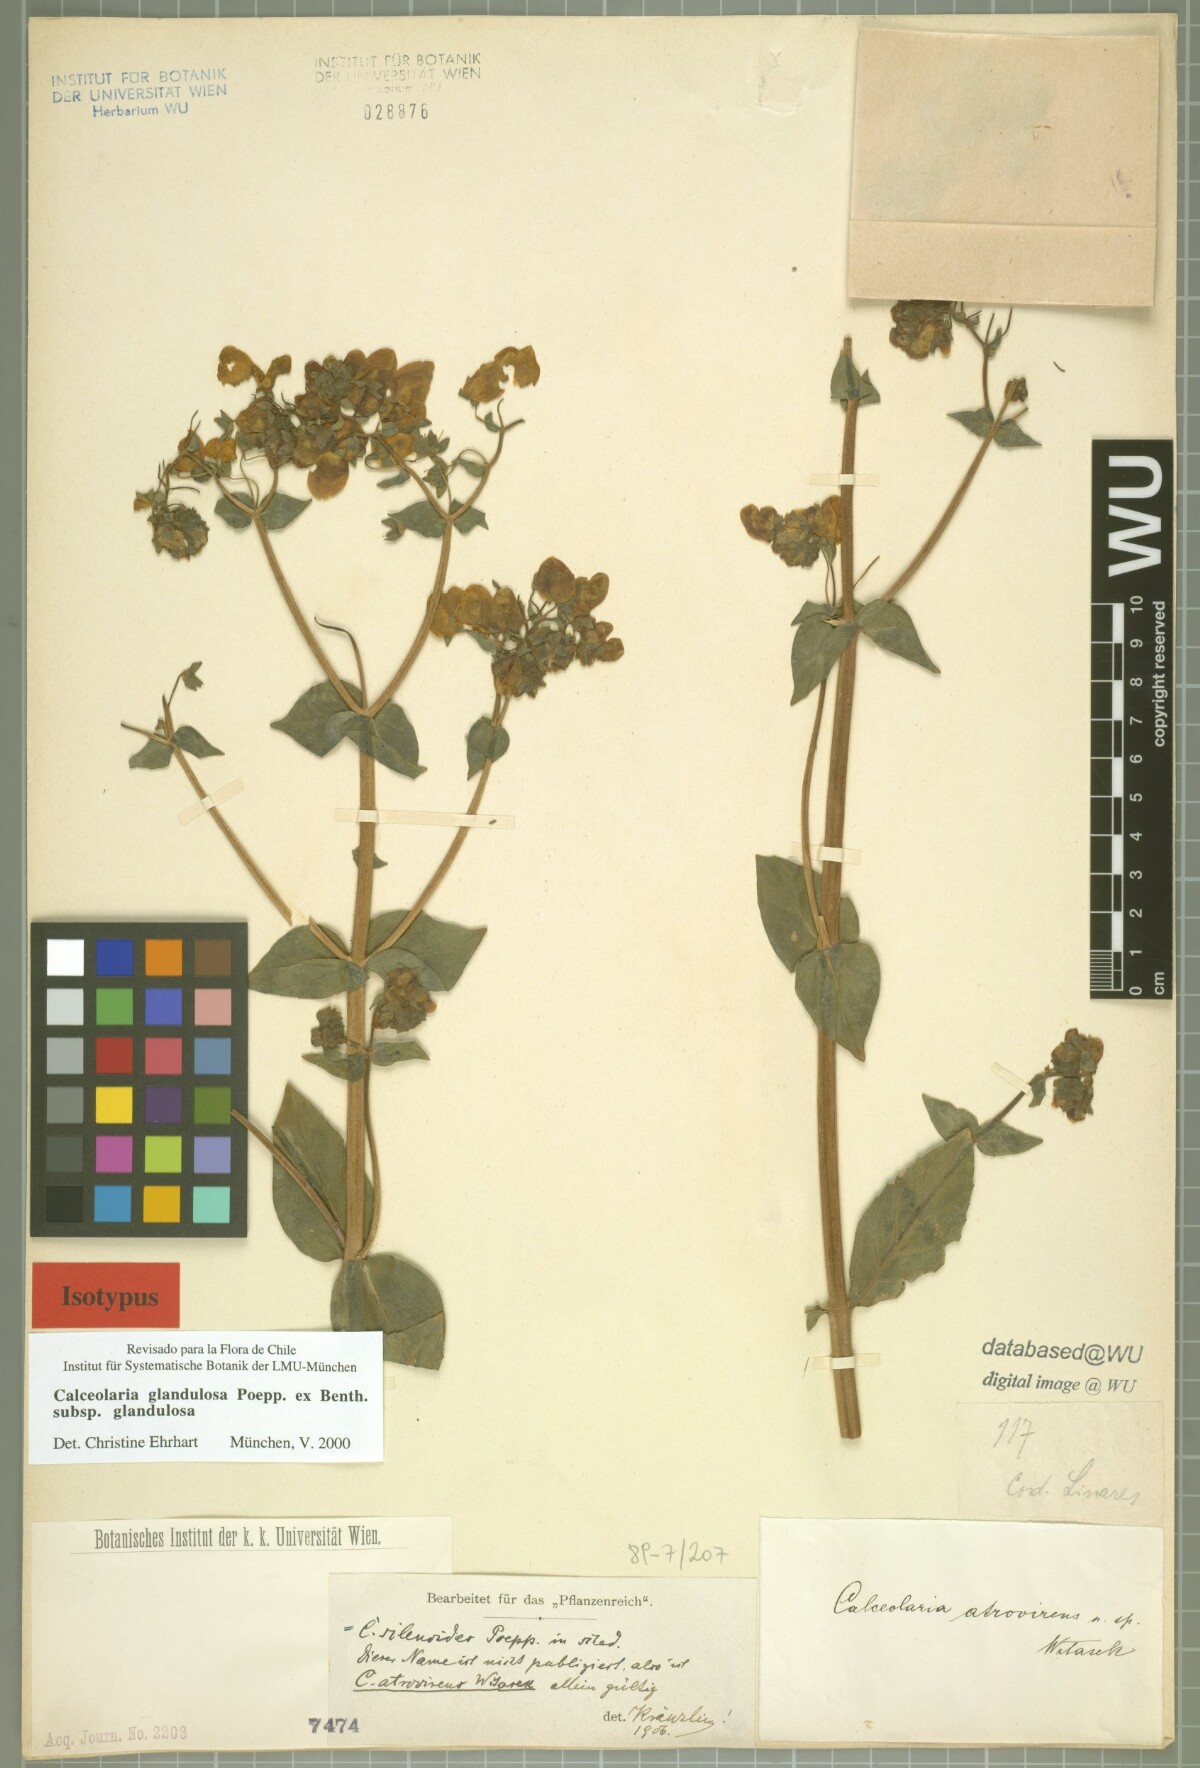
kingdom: Plantae
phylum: Tracheophyta
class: Magnoliopsida
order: Lamiales
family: Calceolariaceae
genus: Calceolaria
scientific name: Calceolaria glandulosa
